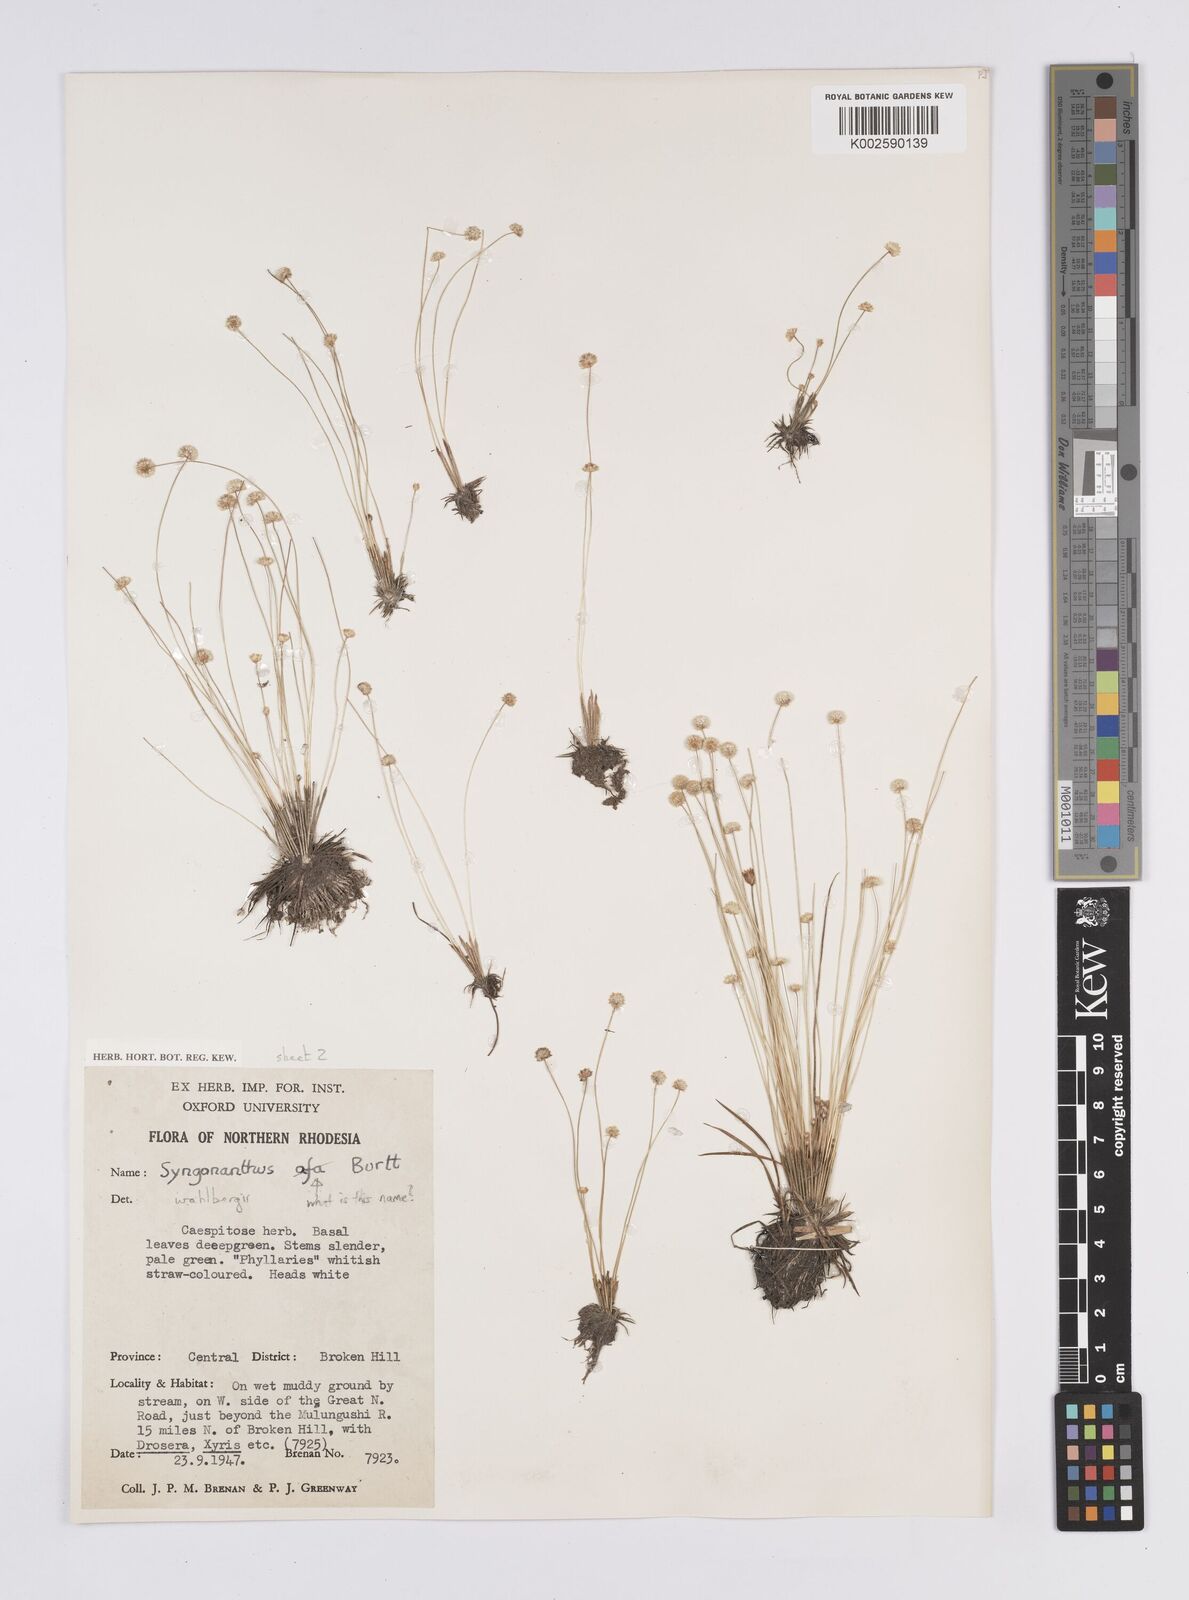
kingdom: Plantae
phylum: Tracheophyta
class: Liliopsida
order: Poales
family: Eriocaulaceae
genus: Syngonanthus
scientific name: Syngonanthus wahlbergii
